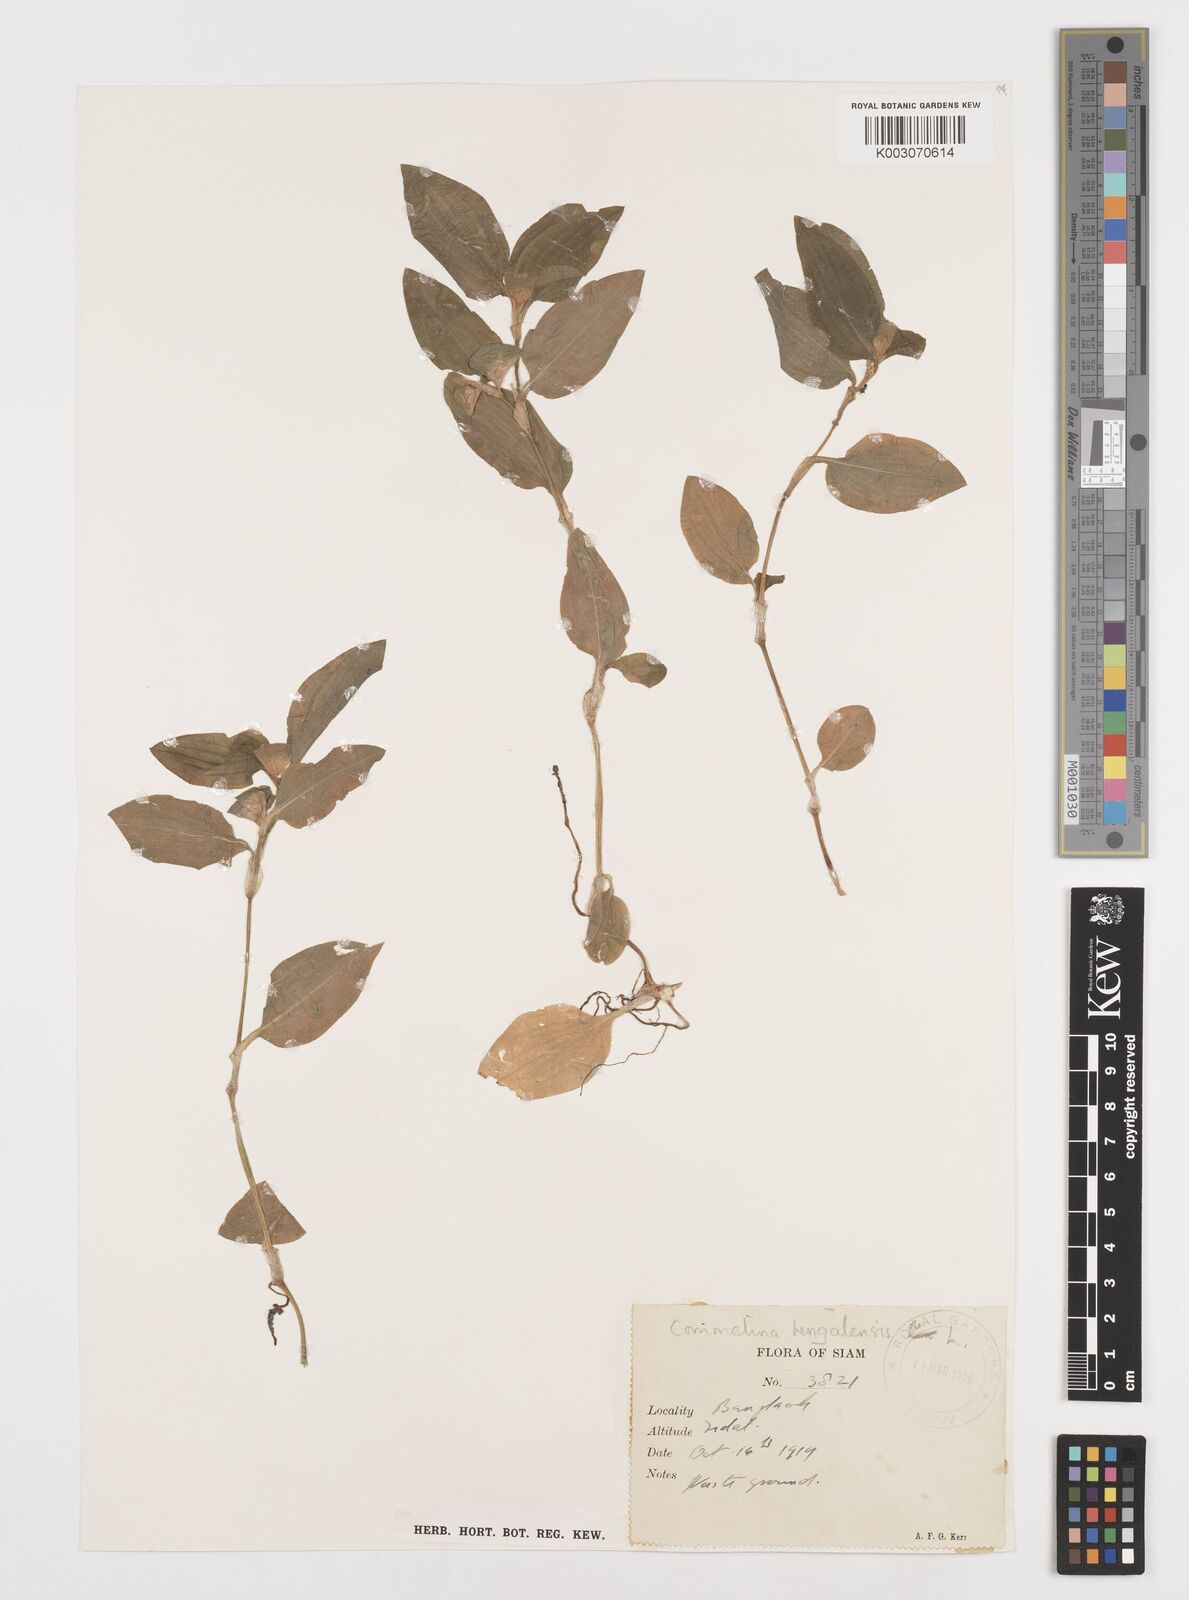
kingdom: Plantae
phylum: Tracheophyta
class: Liliopsida
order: Commelinales
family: Commelinaceae
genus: Commelina
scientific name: Commelina benghalensis
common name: Jio
